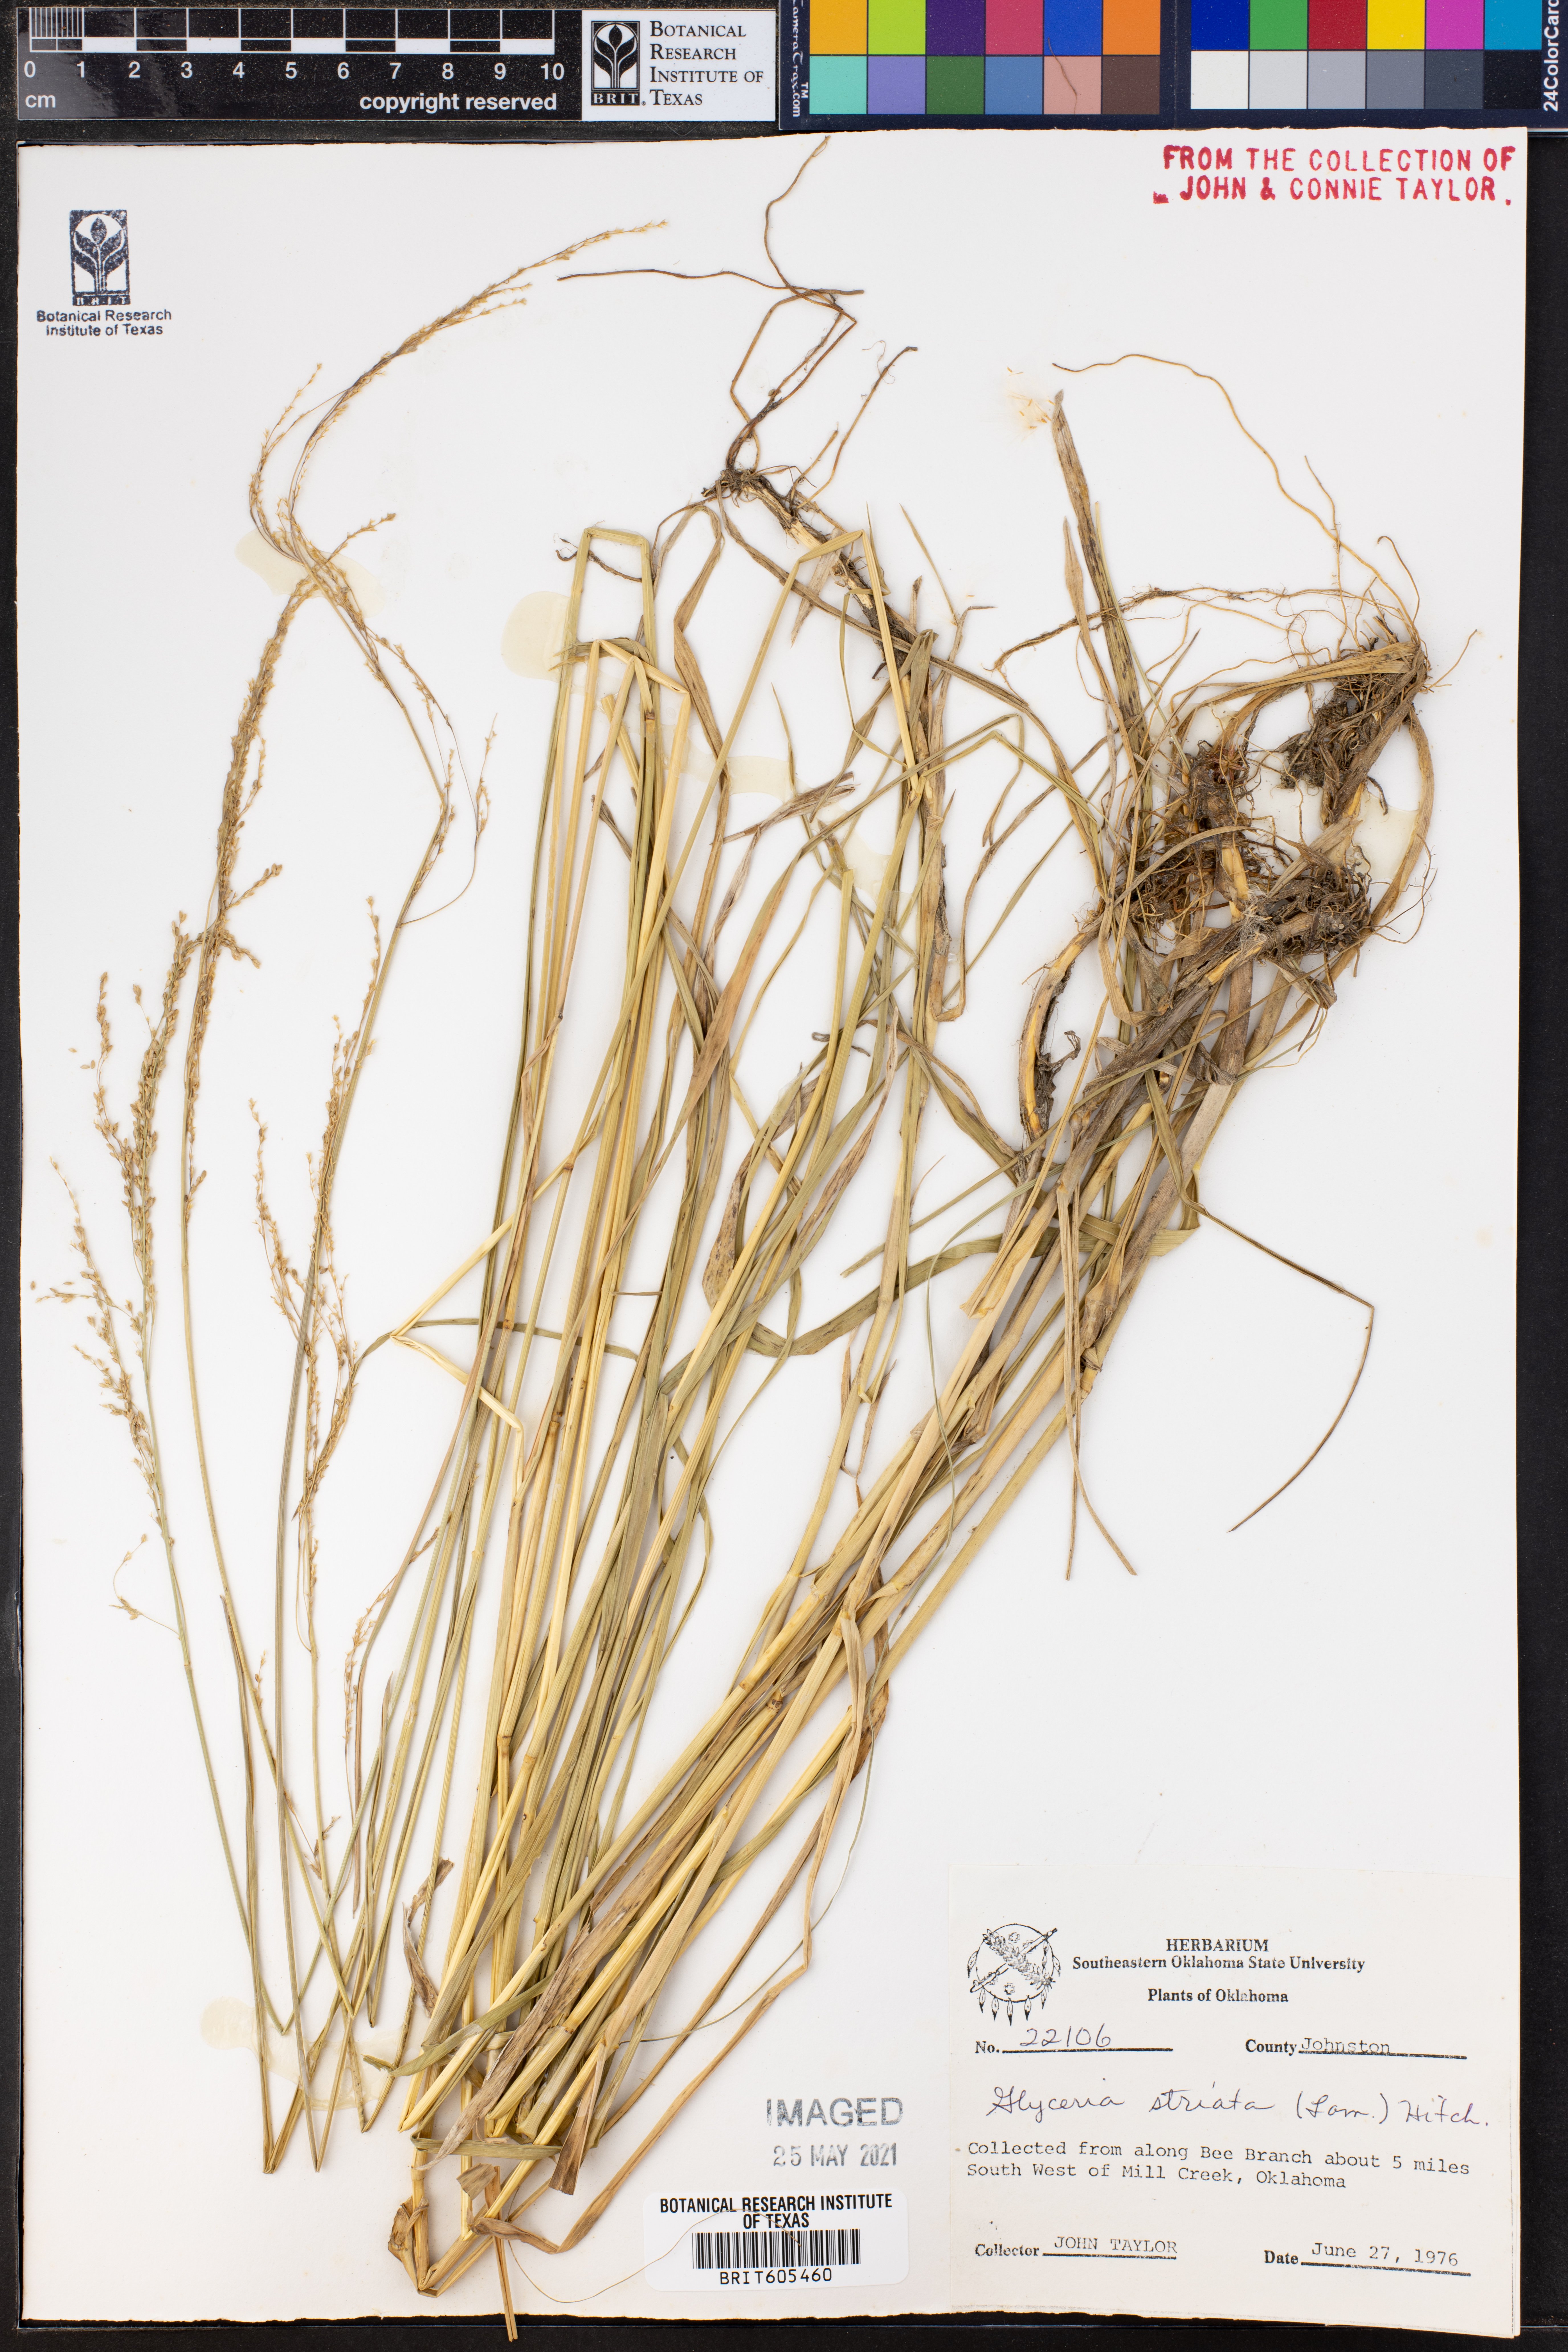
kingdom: Plantae
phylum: Tracheophyta
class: Liliopsida
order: Poales
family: Poaceae
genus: Glyceria
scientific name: Glyceria striata
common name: Fowl manna grass
